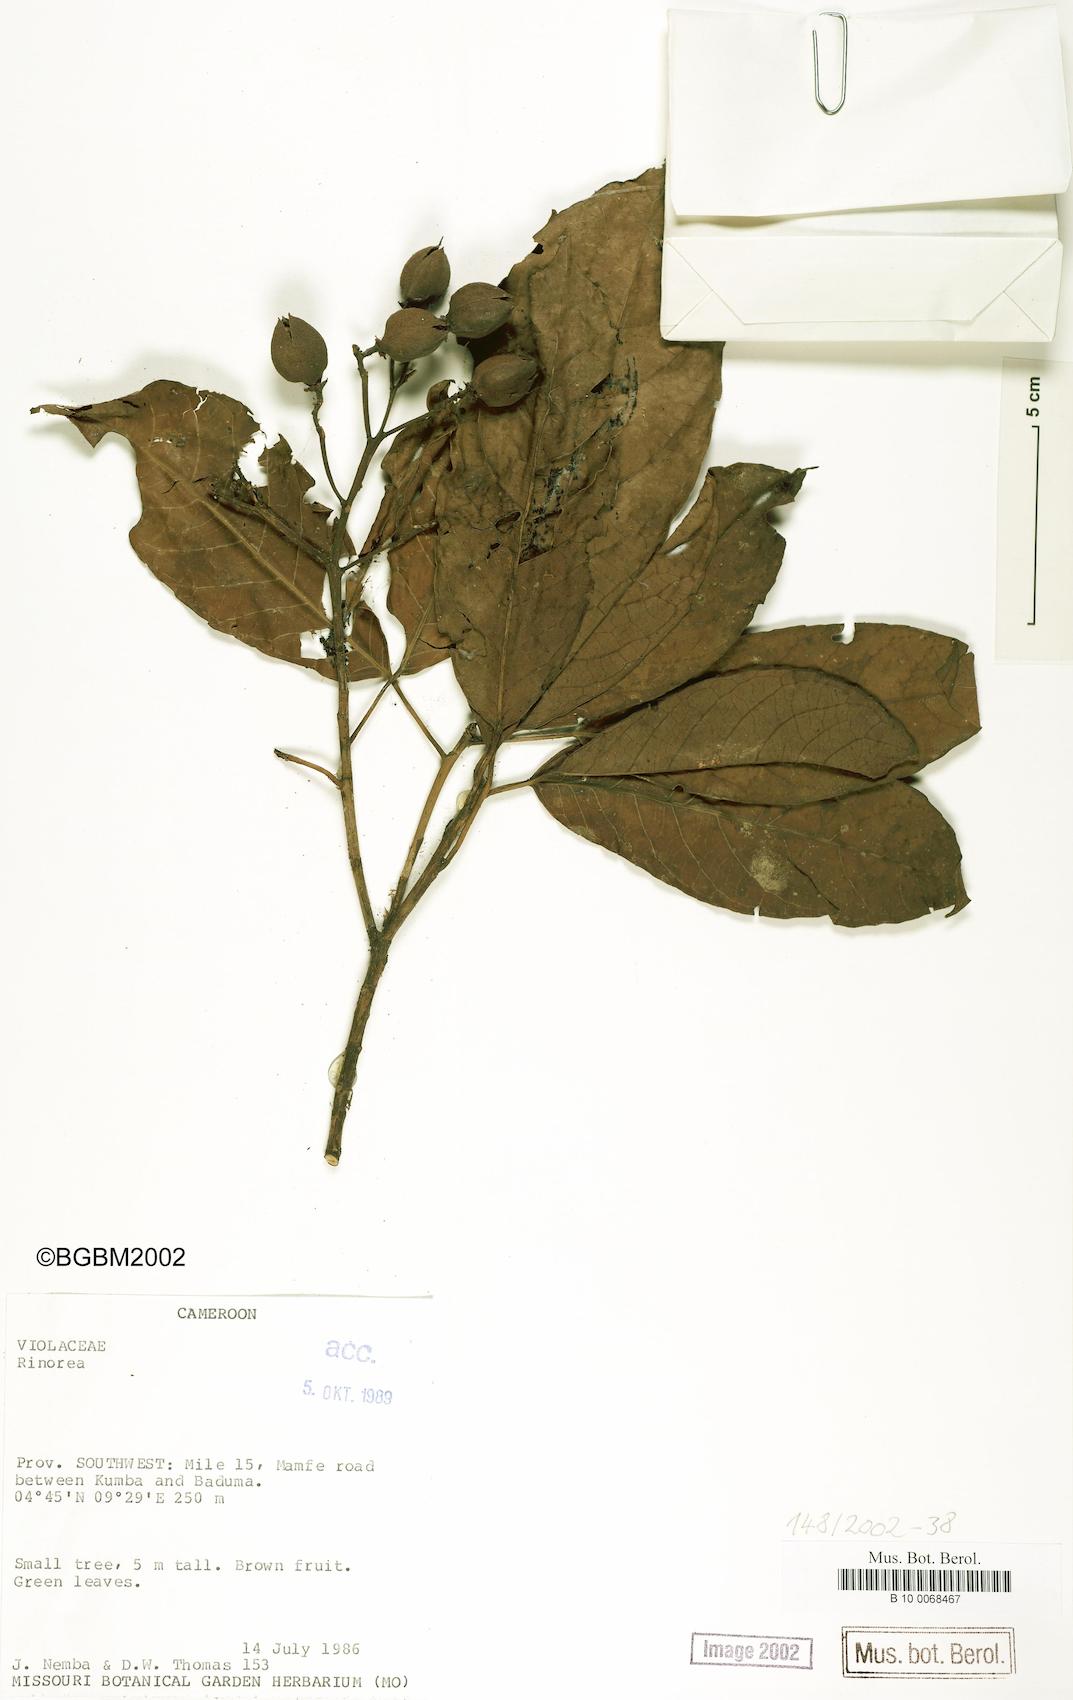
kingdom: Plantae
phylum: Tracheophyta
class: Magnoliopsida
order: Malpighiales
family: Violaceae
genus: Rinorea
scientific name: Rinorea
